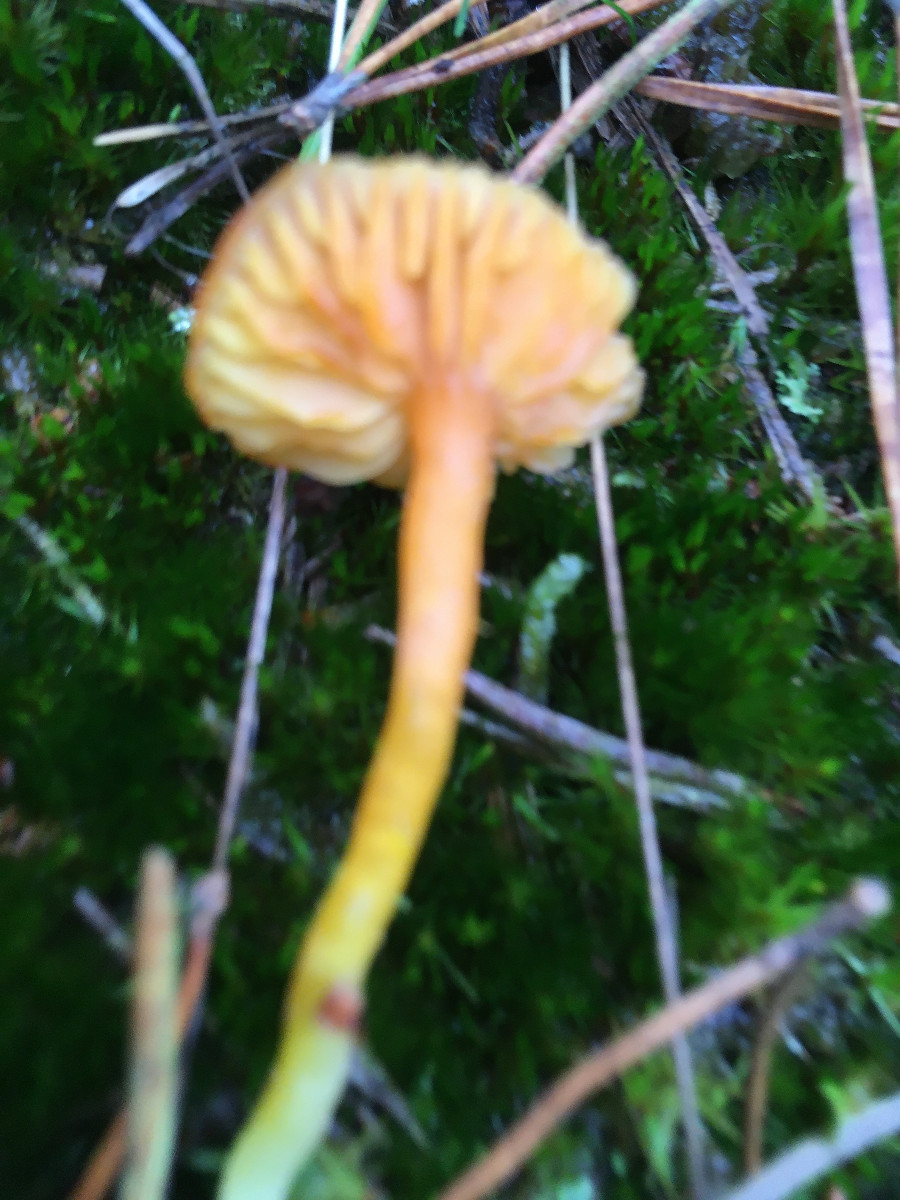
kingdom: Fungi
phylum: Basidiomycota
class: Agaricomycetes
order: Agaricales
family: Hygrophoraceae
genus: Hygrocybe
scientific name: Hygrocybe miniata
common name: mønje-vokshat
